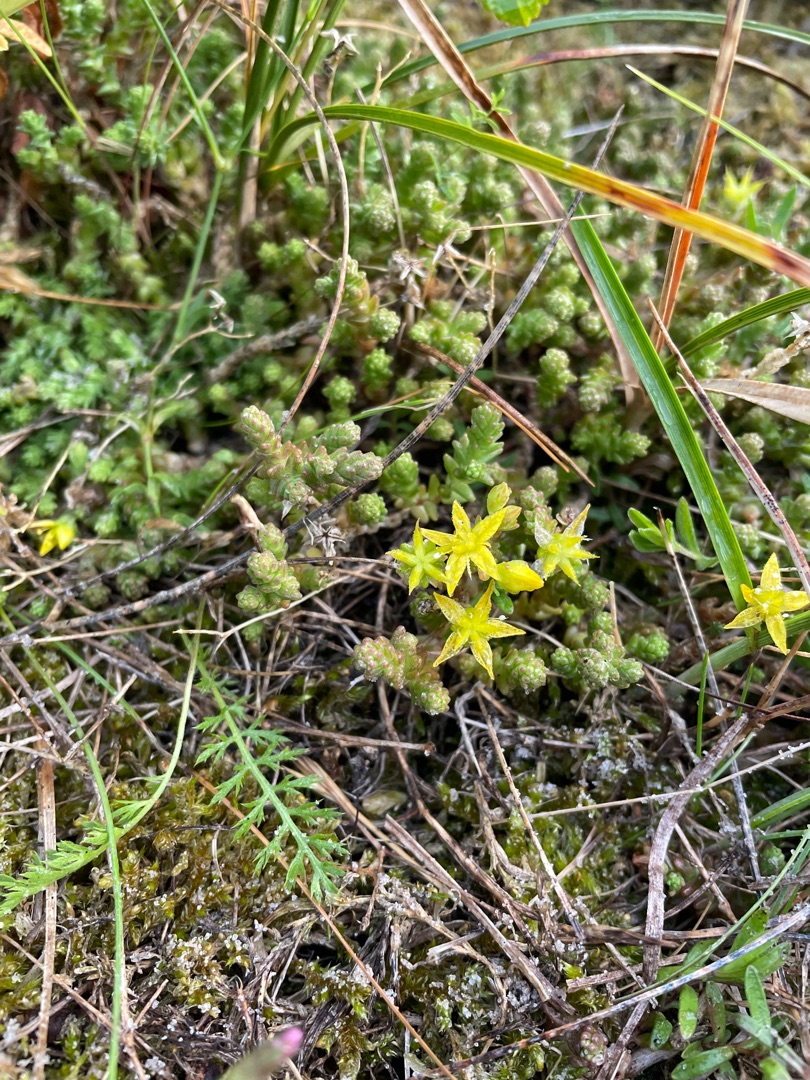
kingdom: Plantae
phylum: Tracheophyta
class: Magnoliopsida
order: Saxifragales
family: Crassulaceae
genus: Sedum
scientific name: Sedum acre
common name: Bidende stenurt
